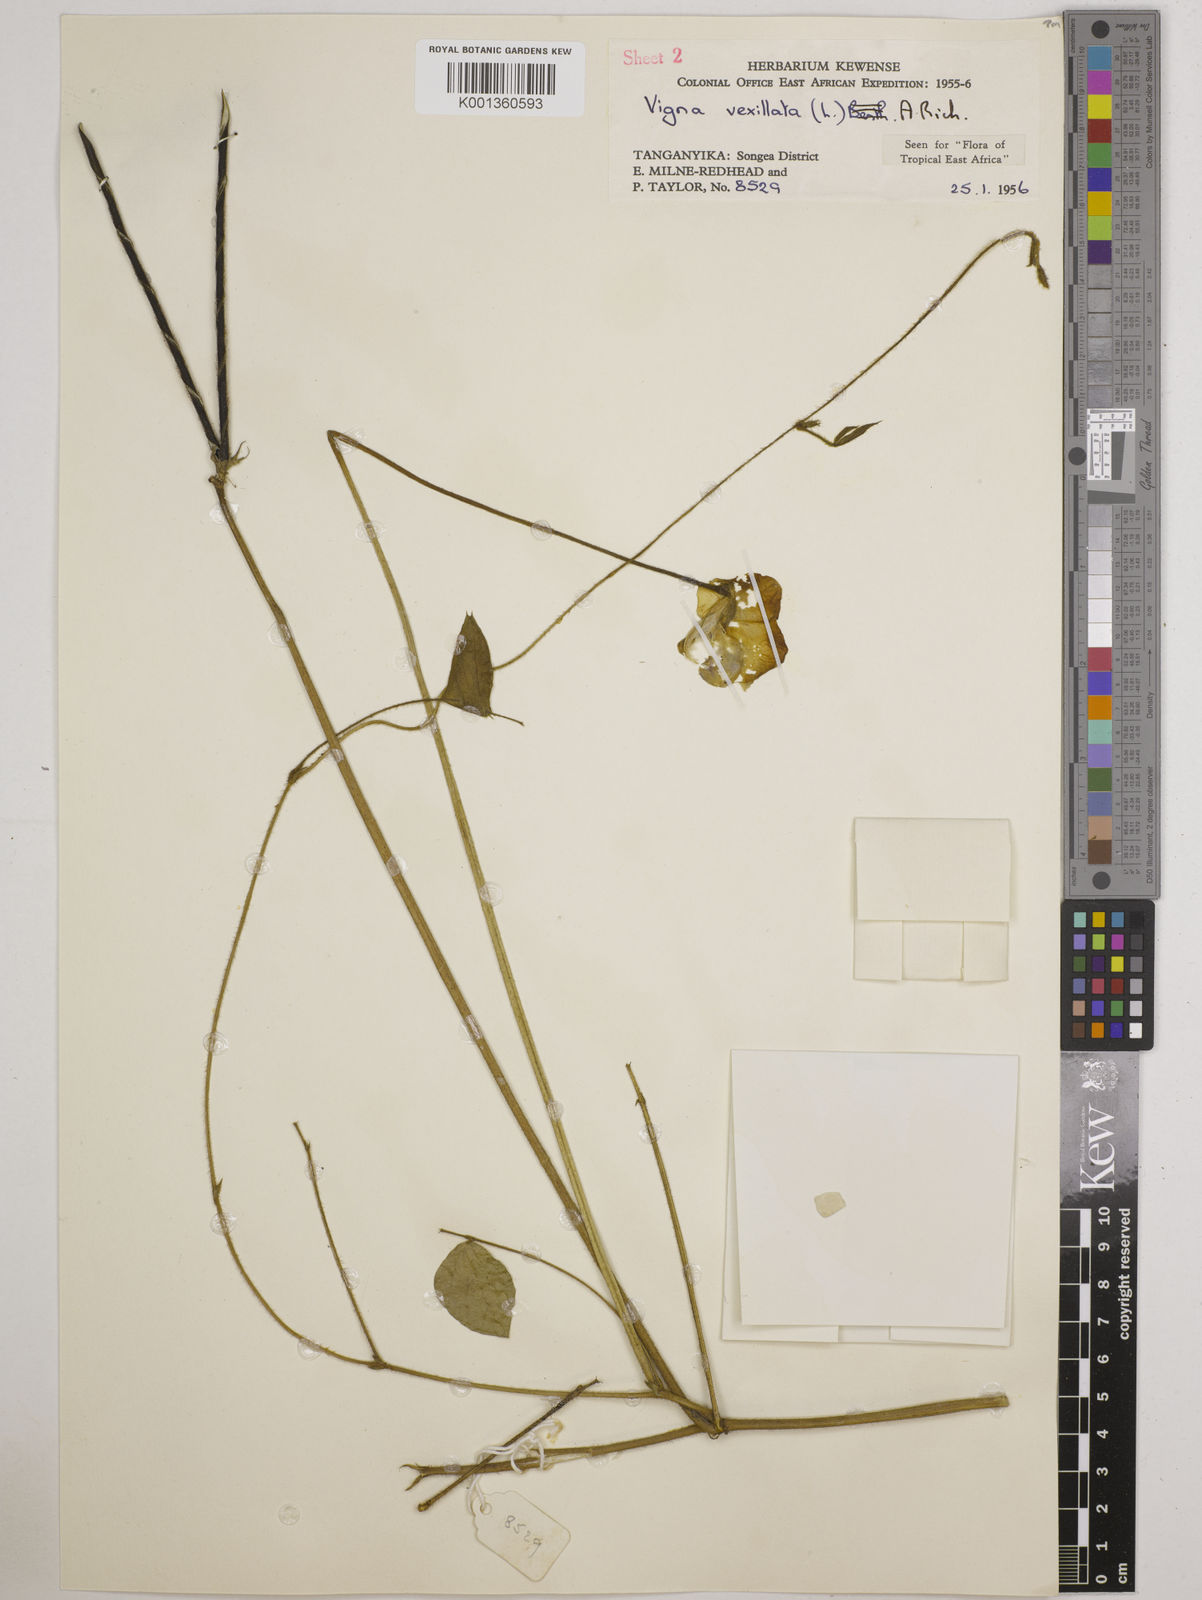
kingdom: Plantae
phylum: Tracheophyta
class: Magnoliopsida
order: Fabales
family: Fabaceae
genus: Vigna
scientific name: Vigna vexillata
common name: Zombi pea
